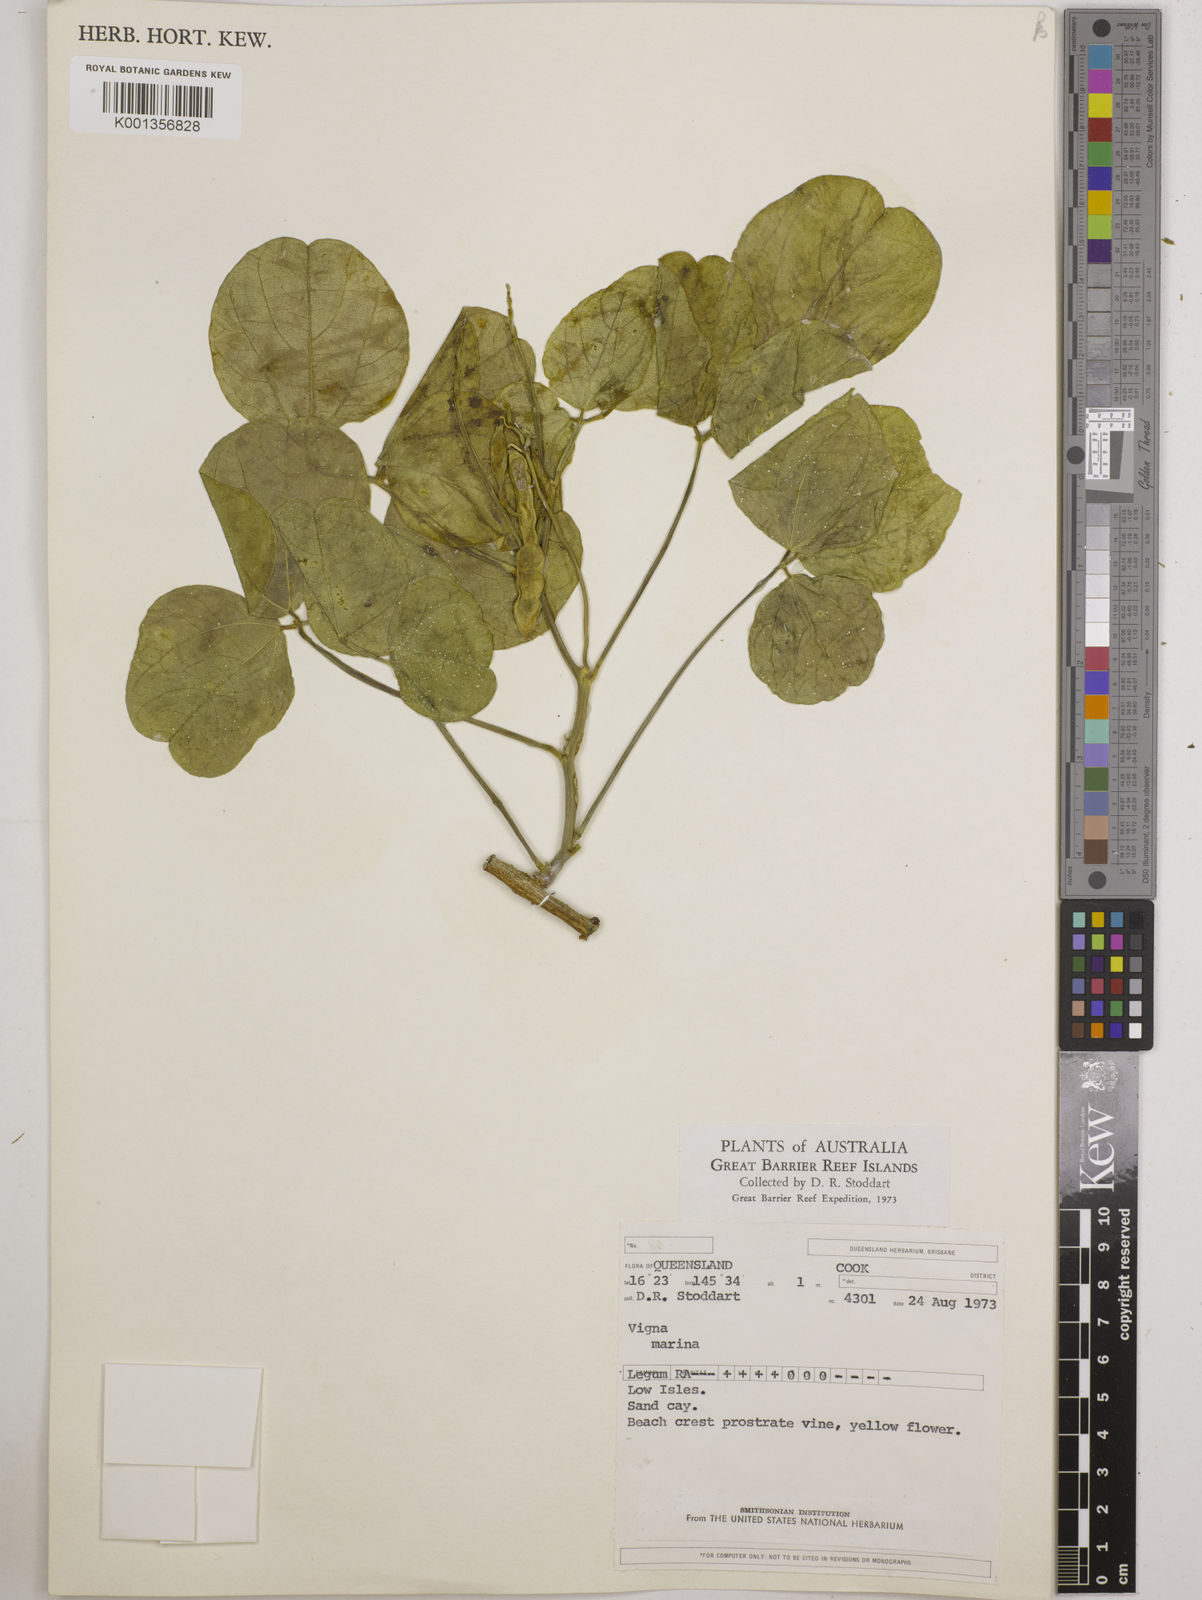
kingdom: Plantae
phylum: Tracheophyta
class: Magnoliopsida
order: Fabales
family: Fabaceae
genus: Vigna
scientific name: Vigna marina
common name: Dune-bean
